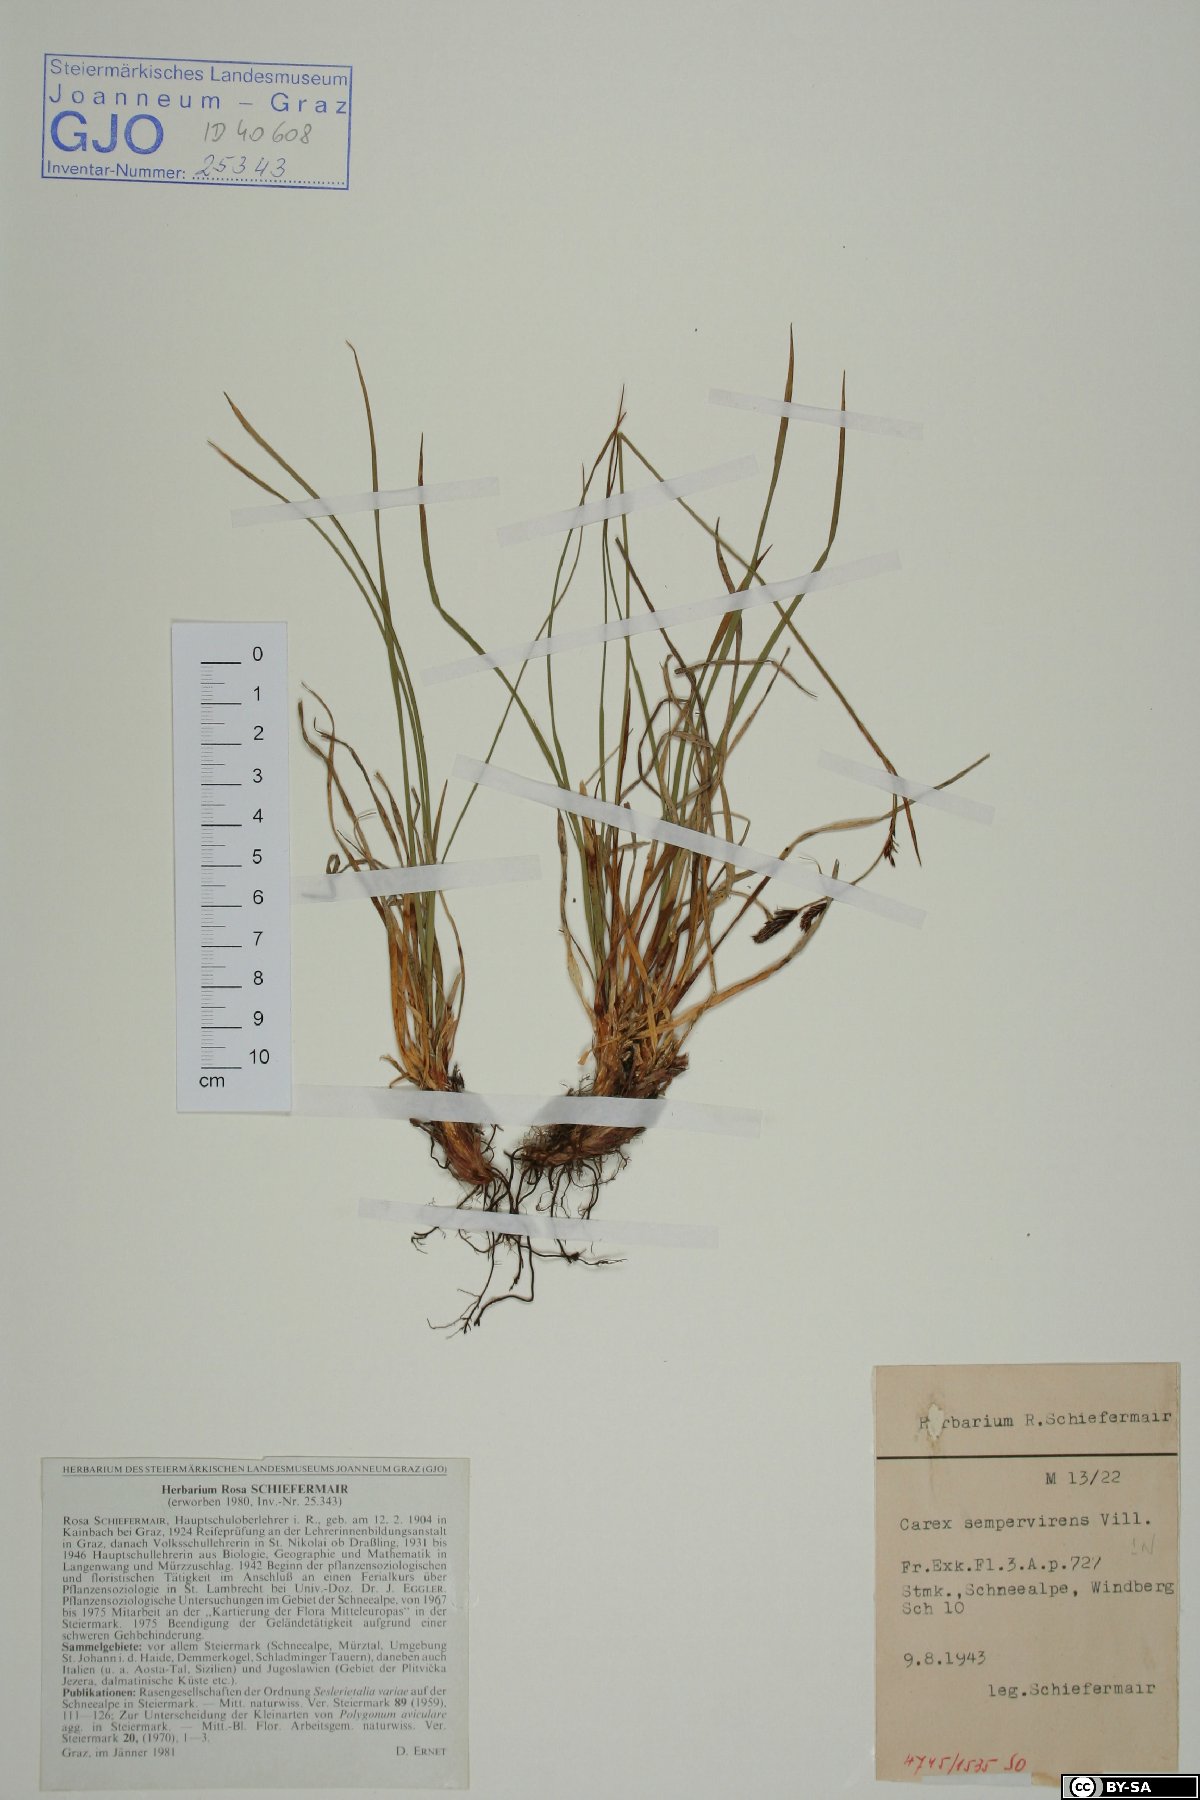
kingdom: Plantae
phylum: Tracheophyta
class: Liliopsida
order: Poales
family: Cyperaceae
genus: Carex
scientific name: Carex sempervirens
